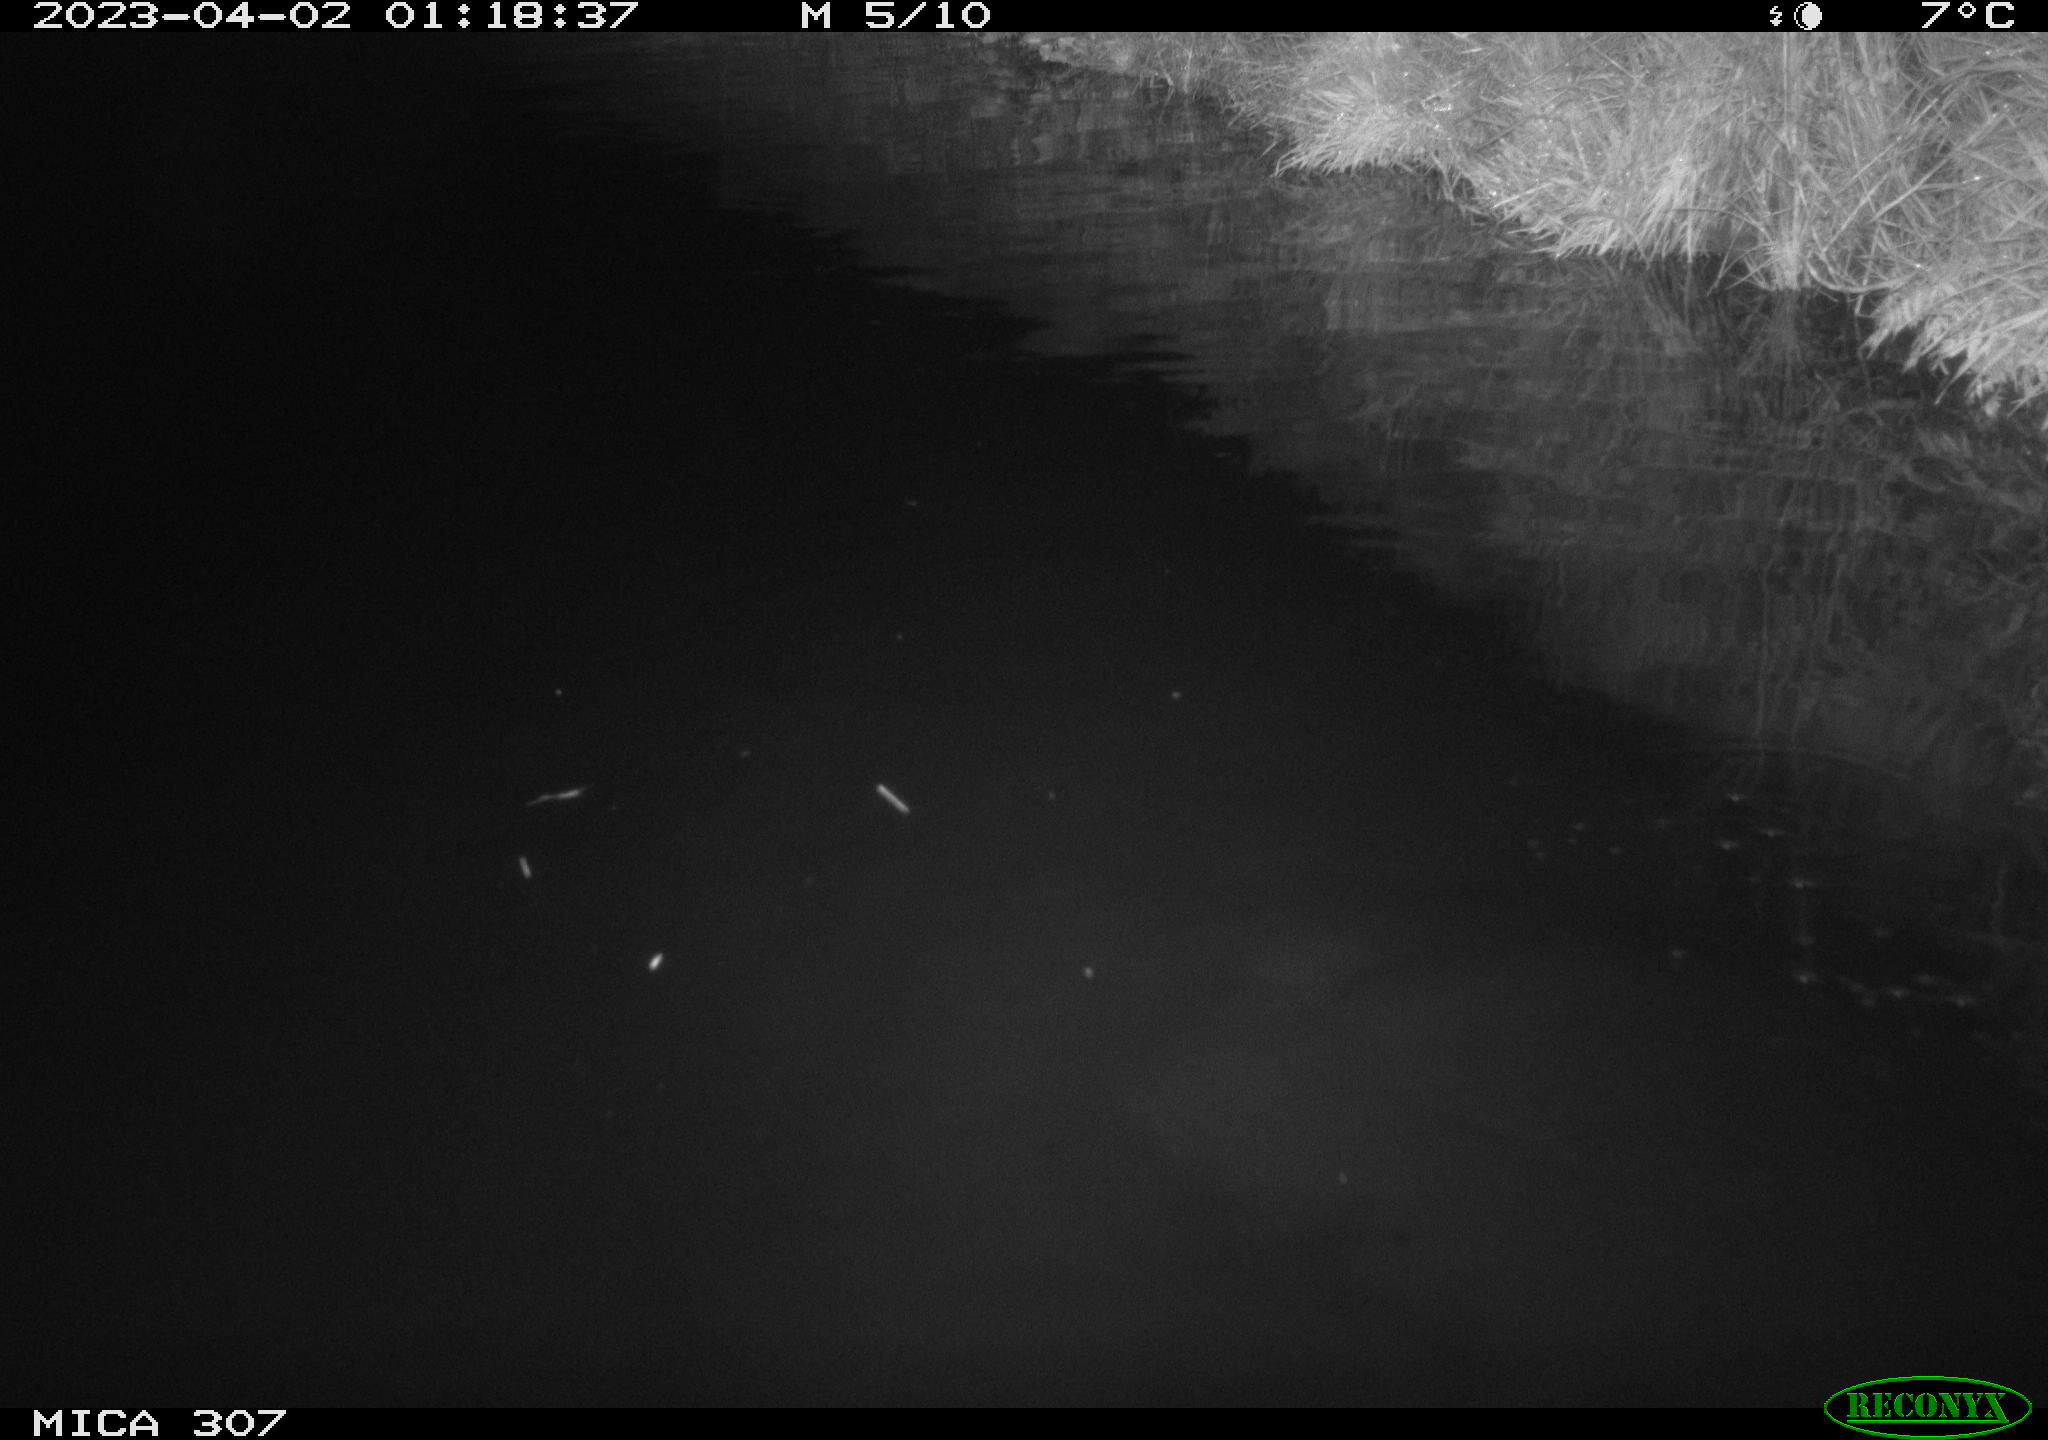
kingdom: Animalia
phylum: Chordata
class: Aves
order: Anseriformes
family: Anatidae
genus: Anas
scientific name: Anas
